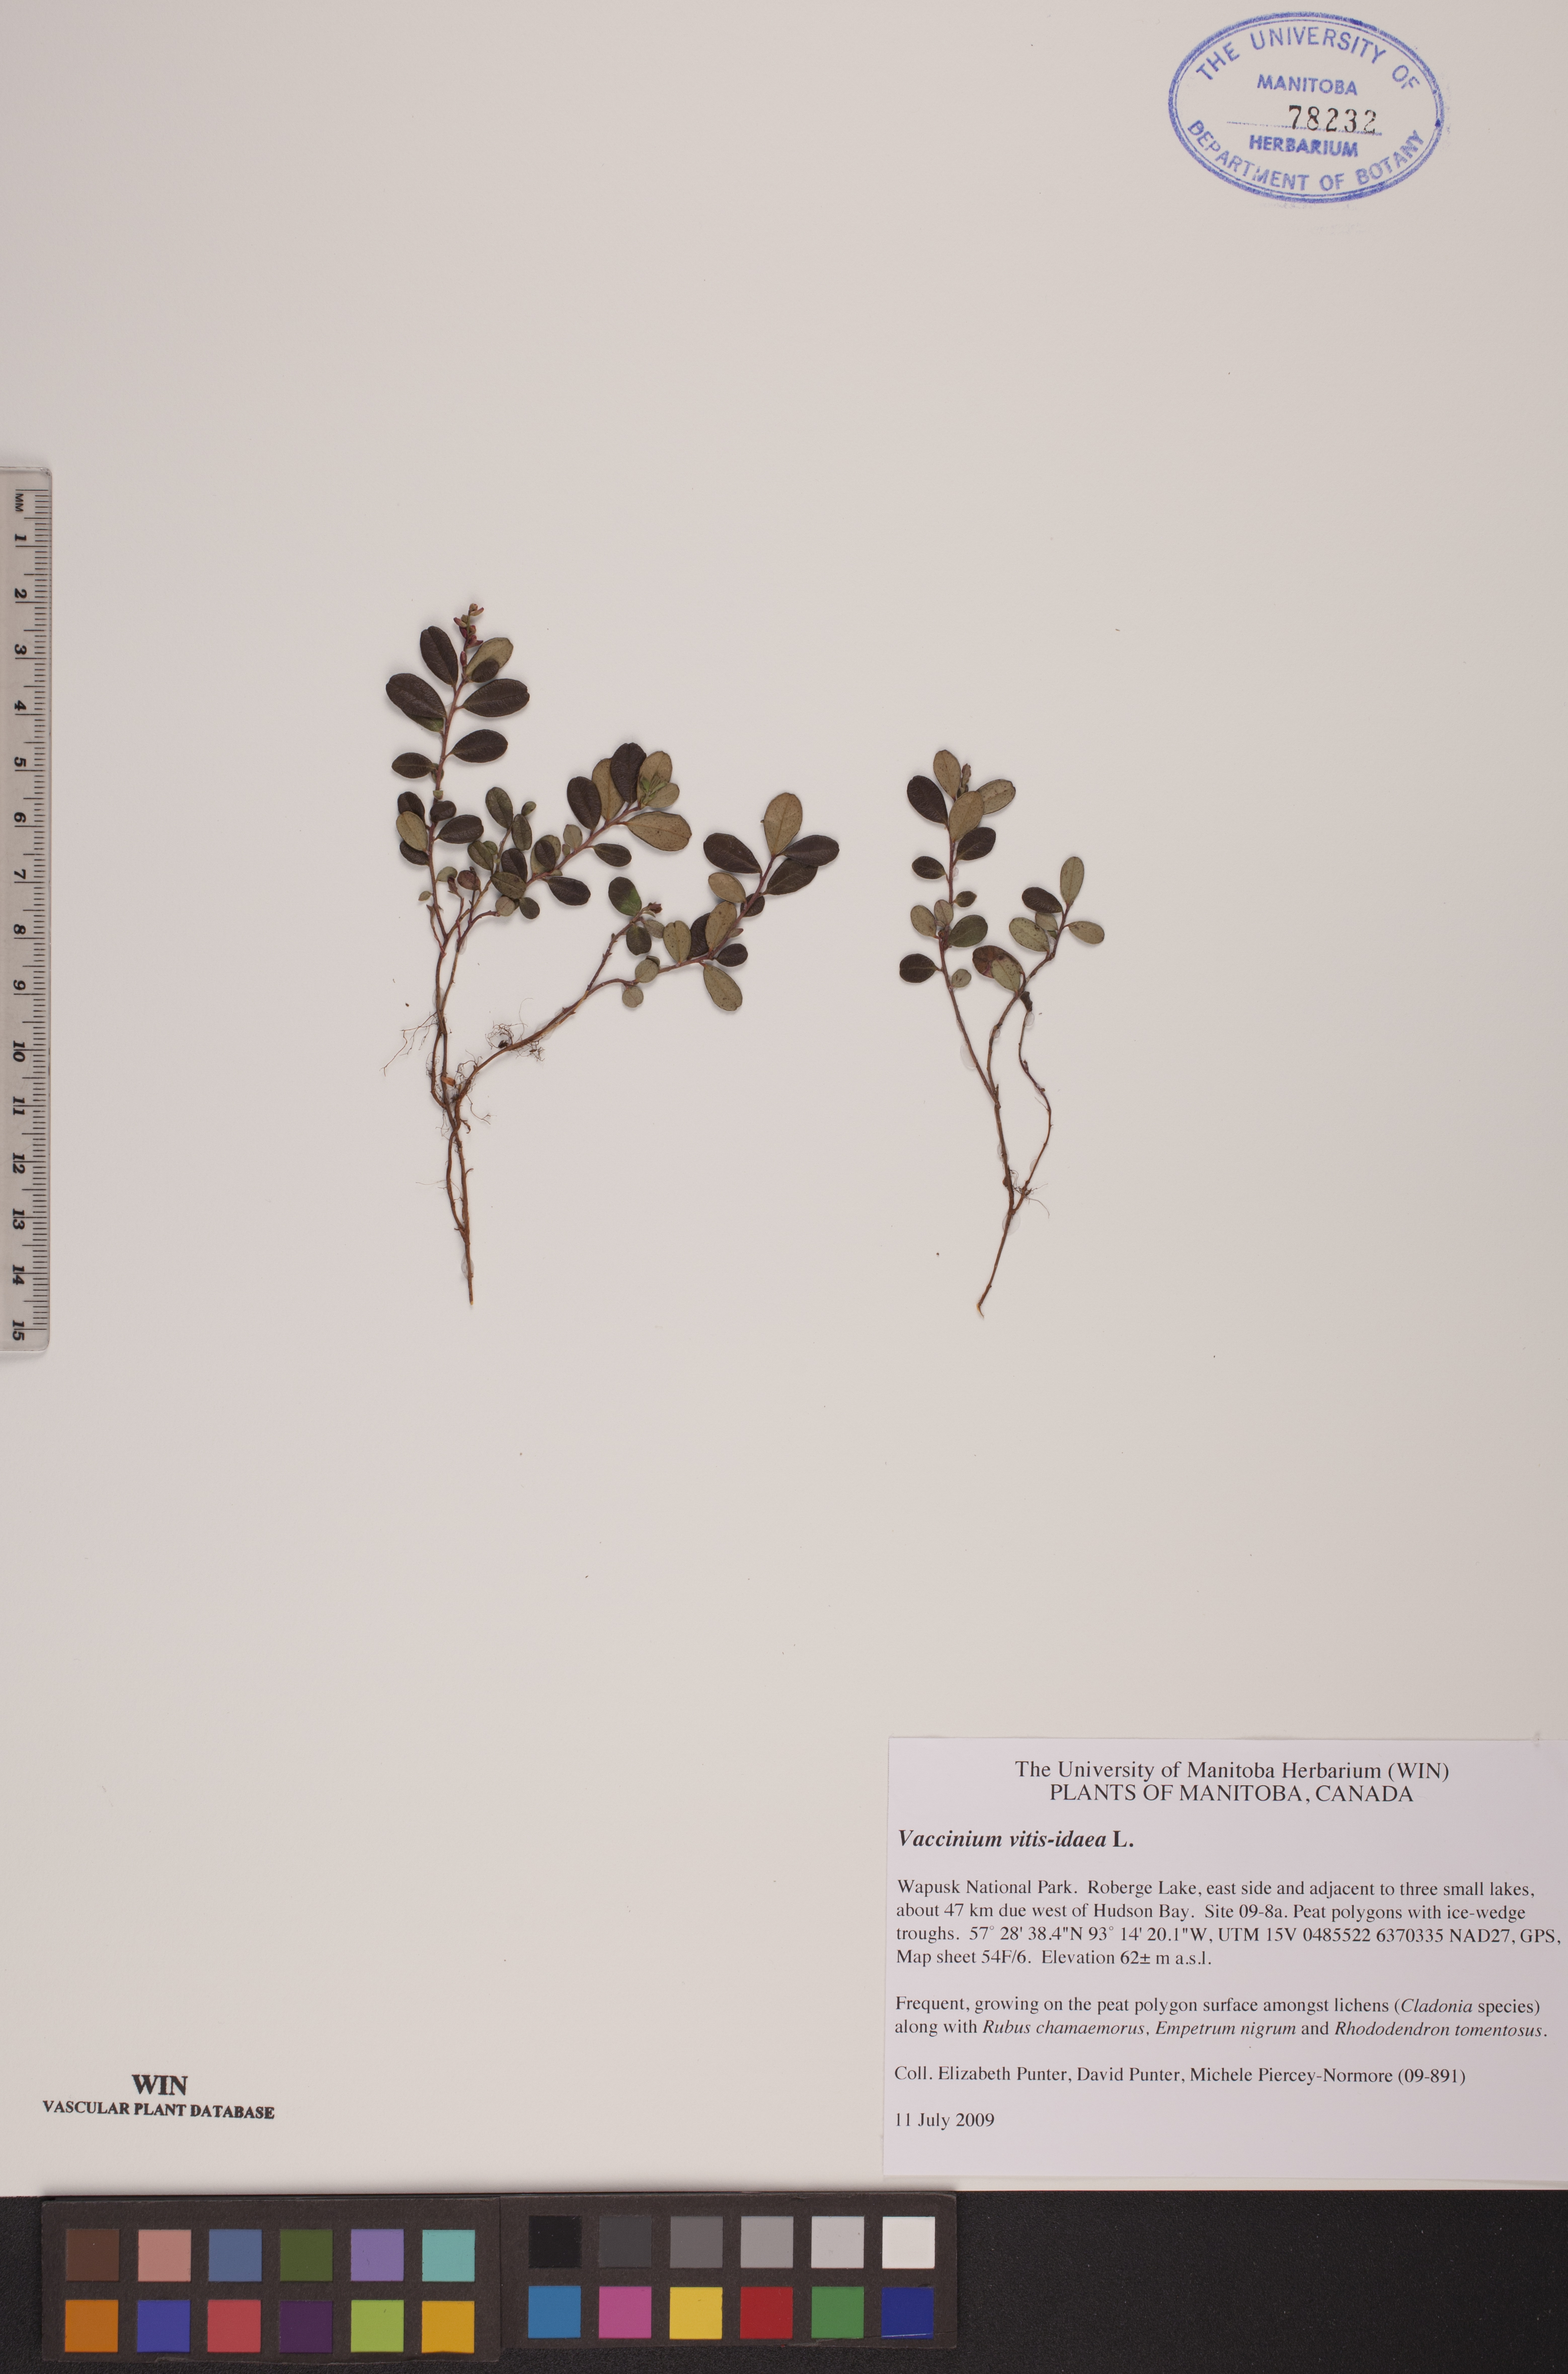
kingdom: Plantae
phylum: Tracheophyta
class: Magnoliopsida
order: Ericales
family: Ericaceae
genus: Vaccinium
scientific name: Vaccinium vitis-idaea
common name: Cowberry
